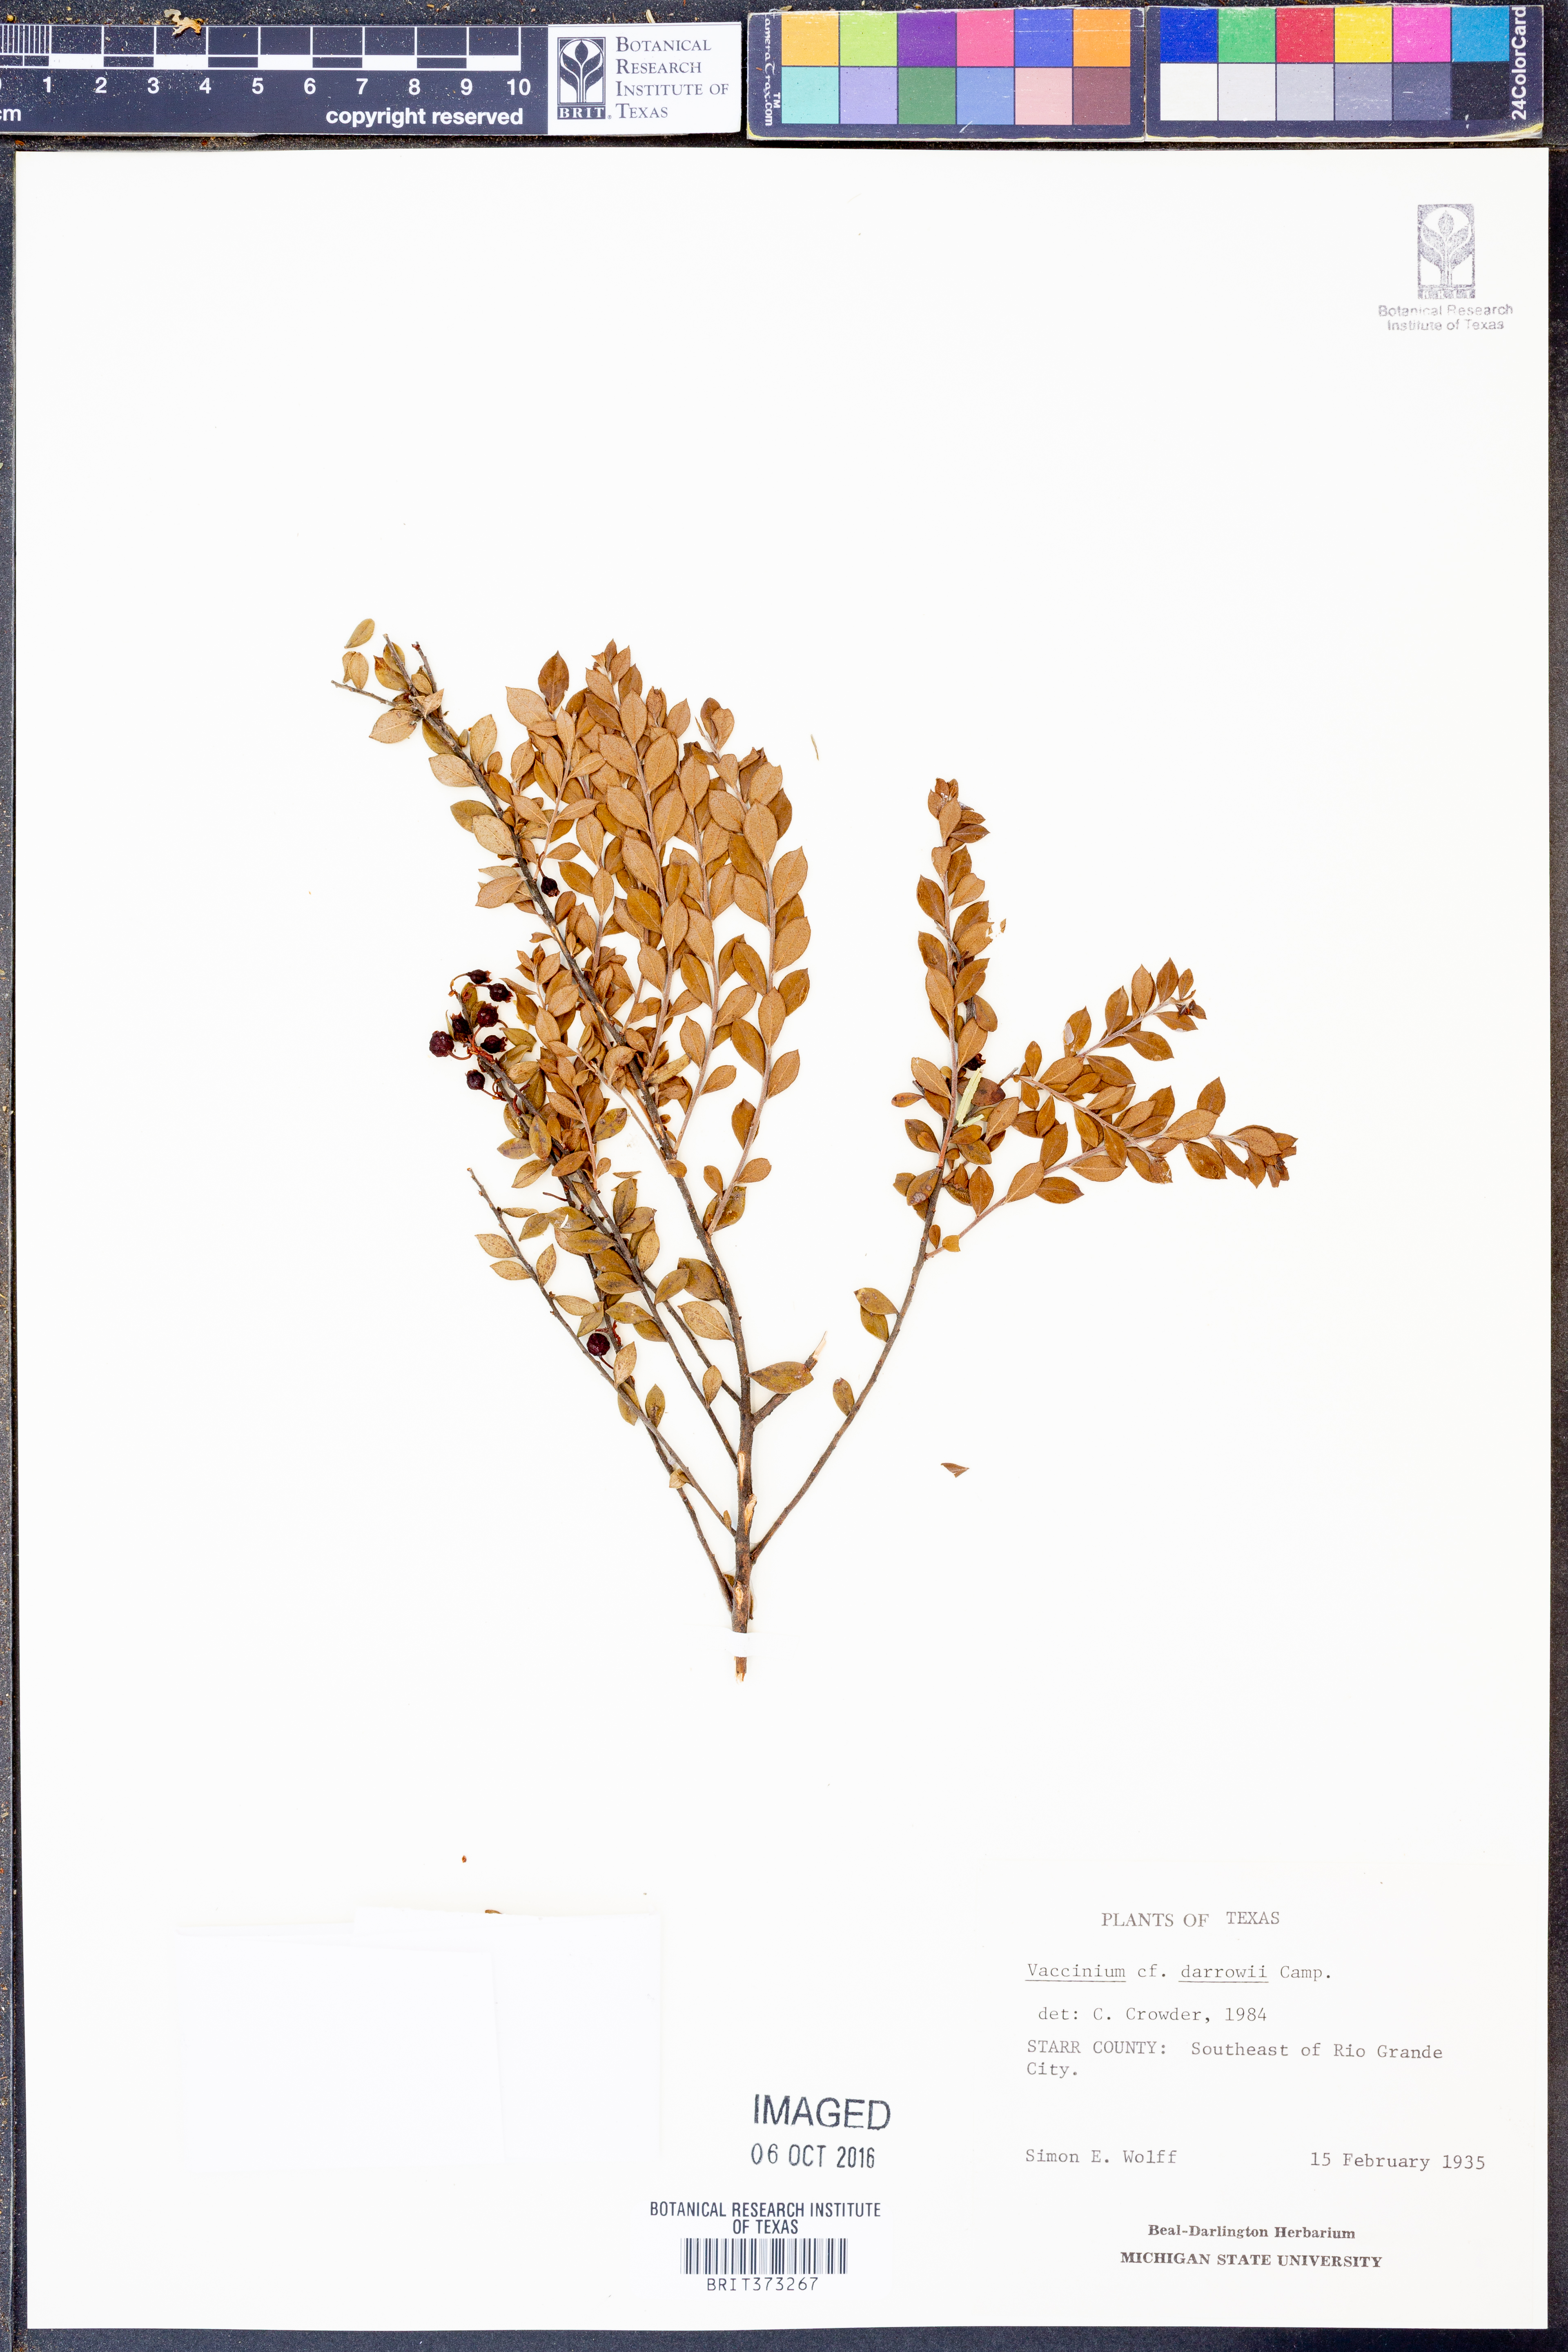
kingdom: Plantae
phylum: Tracheophyta
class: Magnoliopsida
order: Ericales
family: Ericaceae
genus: Vaccinium
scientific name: Vaccinium darrowii
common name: Darrow's blueberry
